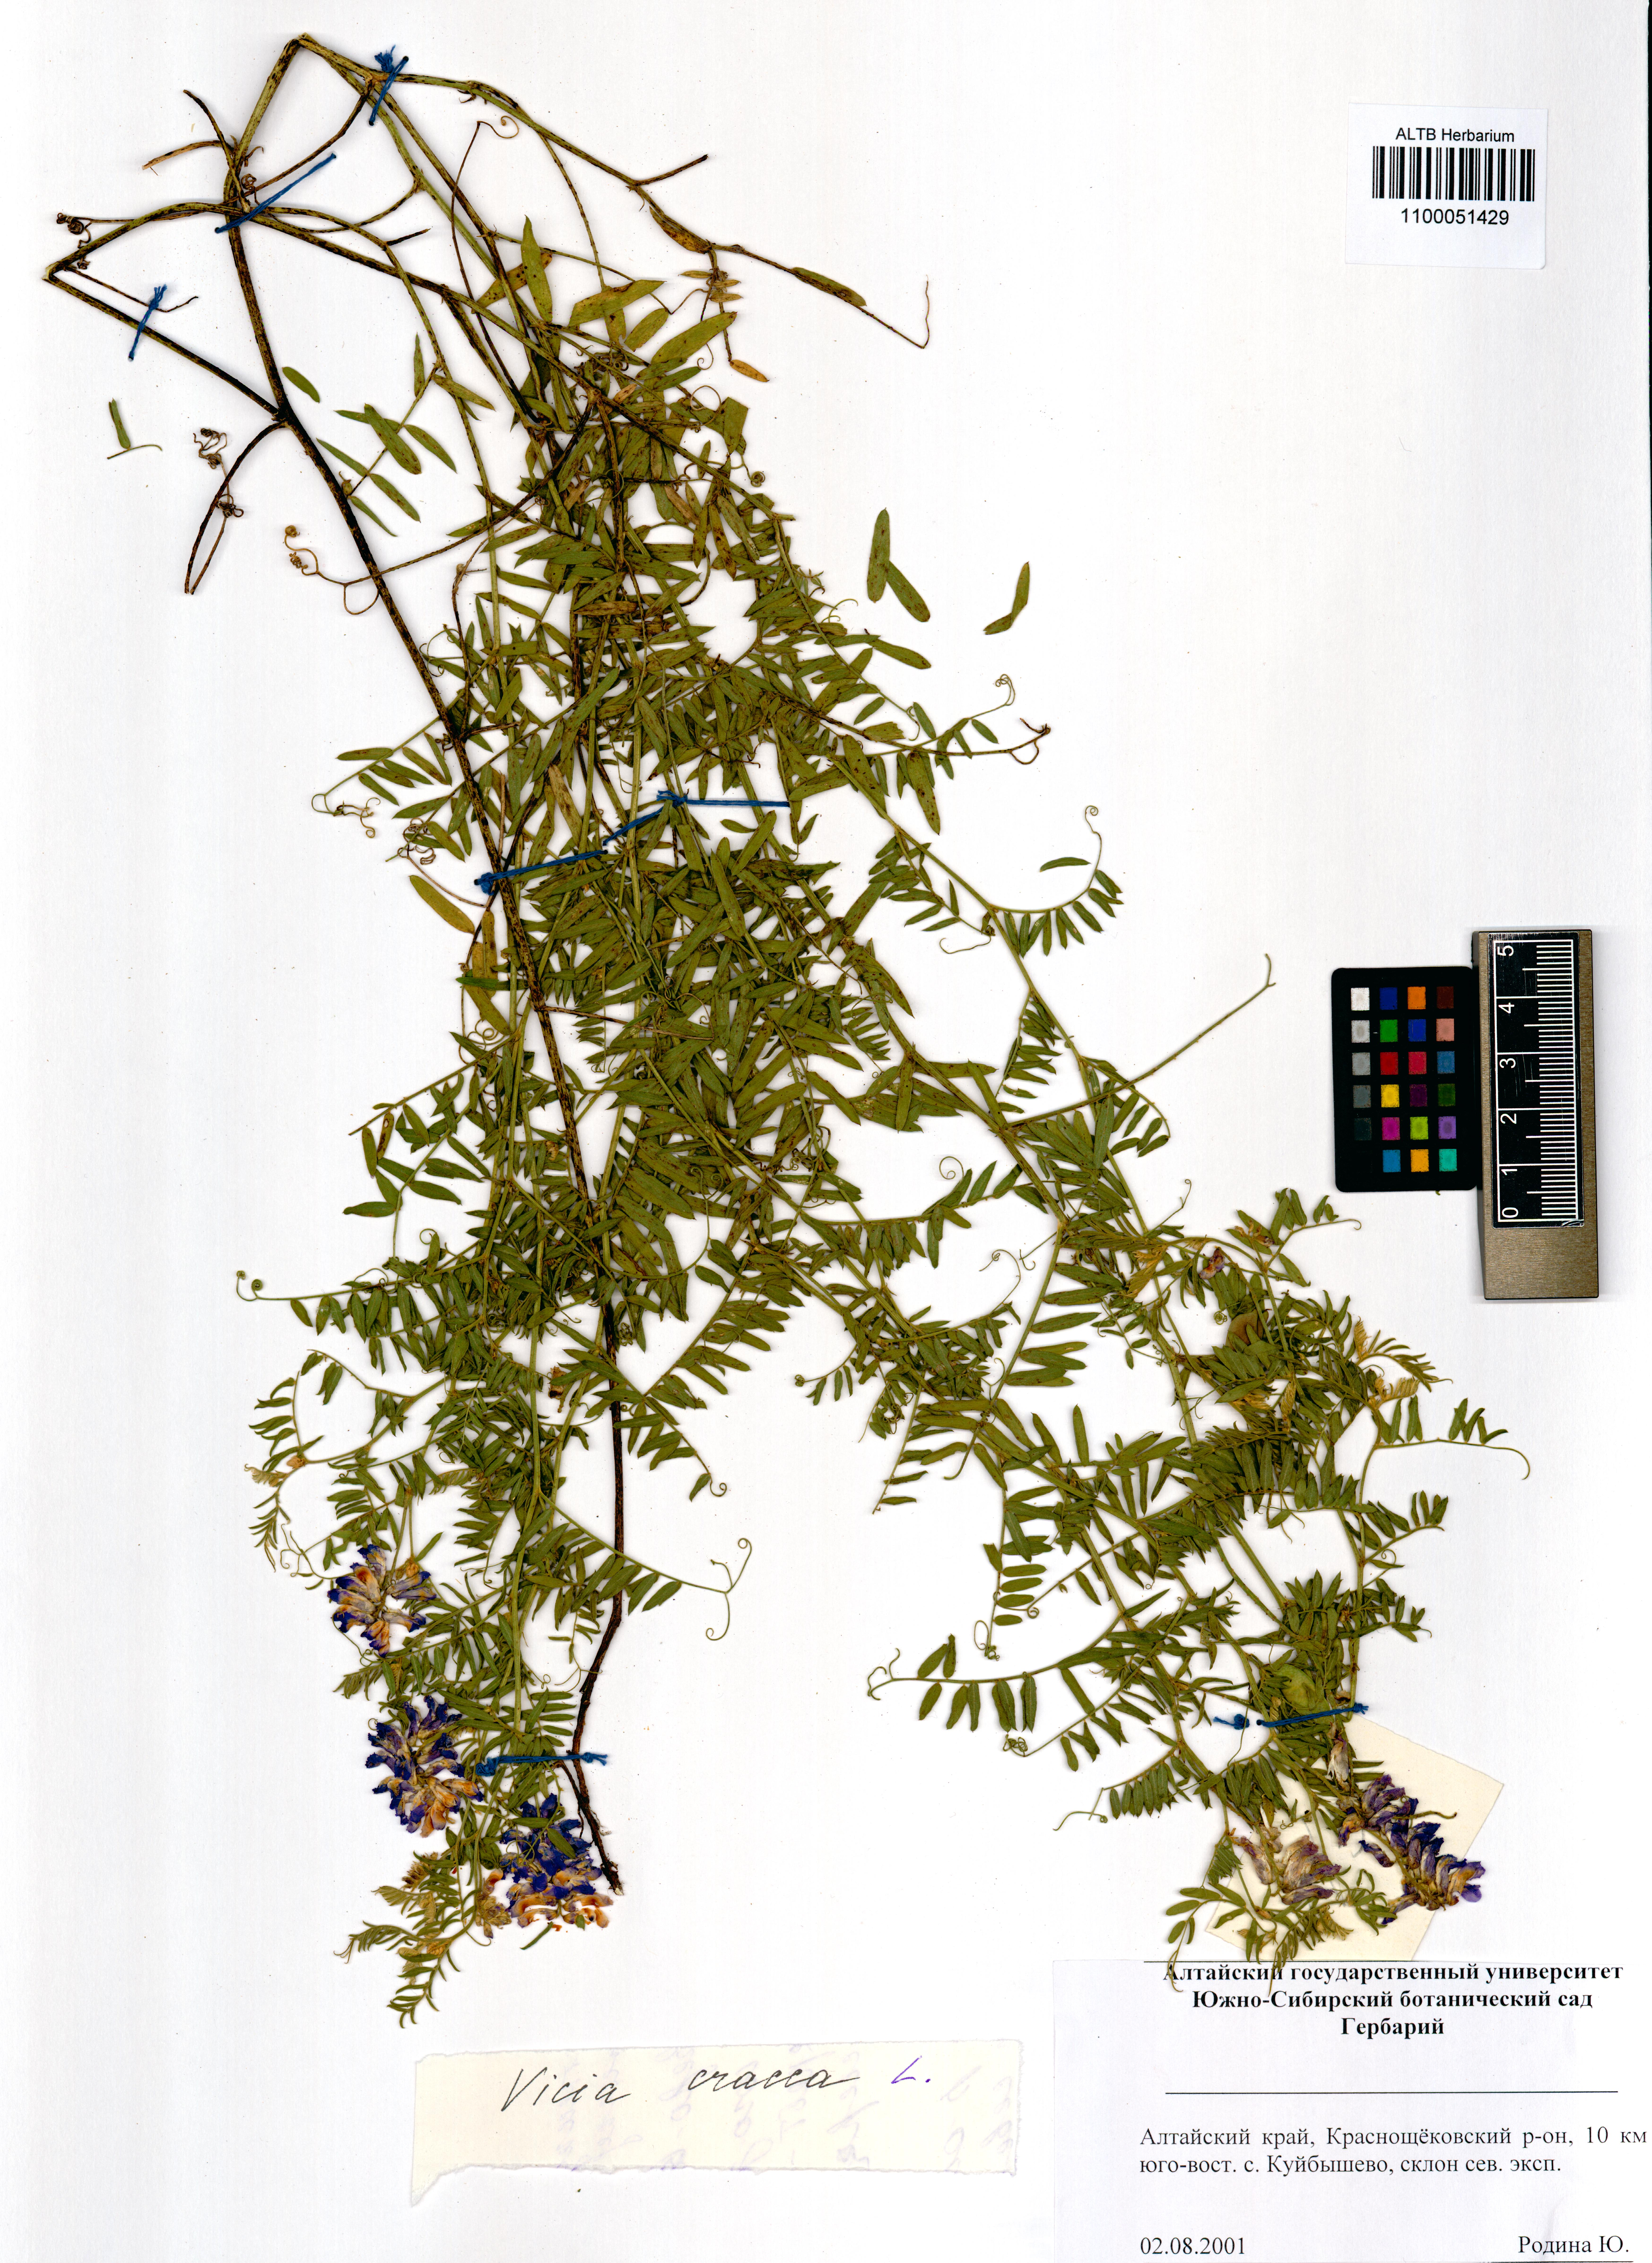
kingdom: Plantae
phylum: Tracheophyta
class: Magnoliopsida
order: Fabales
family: Fabaceae
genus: Vicia
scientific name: Vicia cracca
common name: Bird vetch
